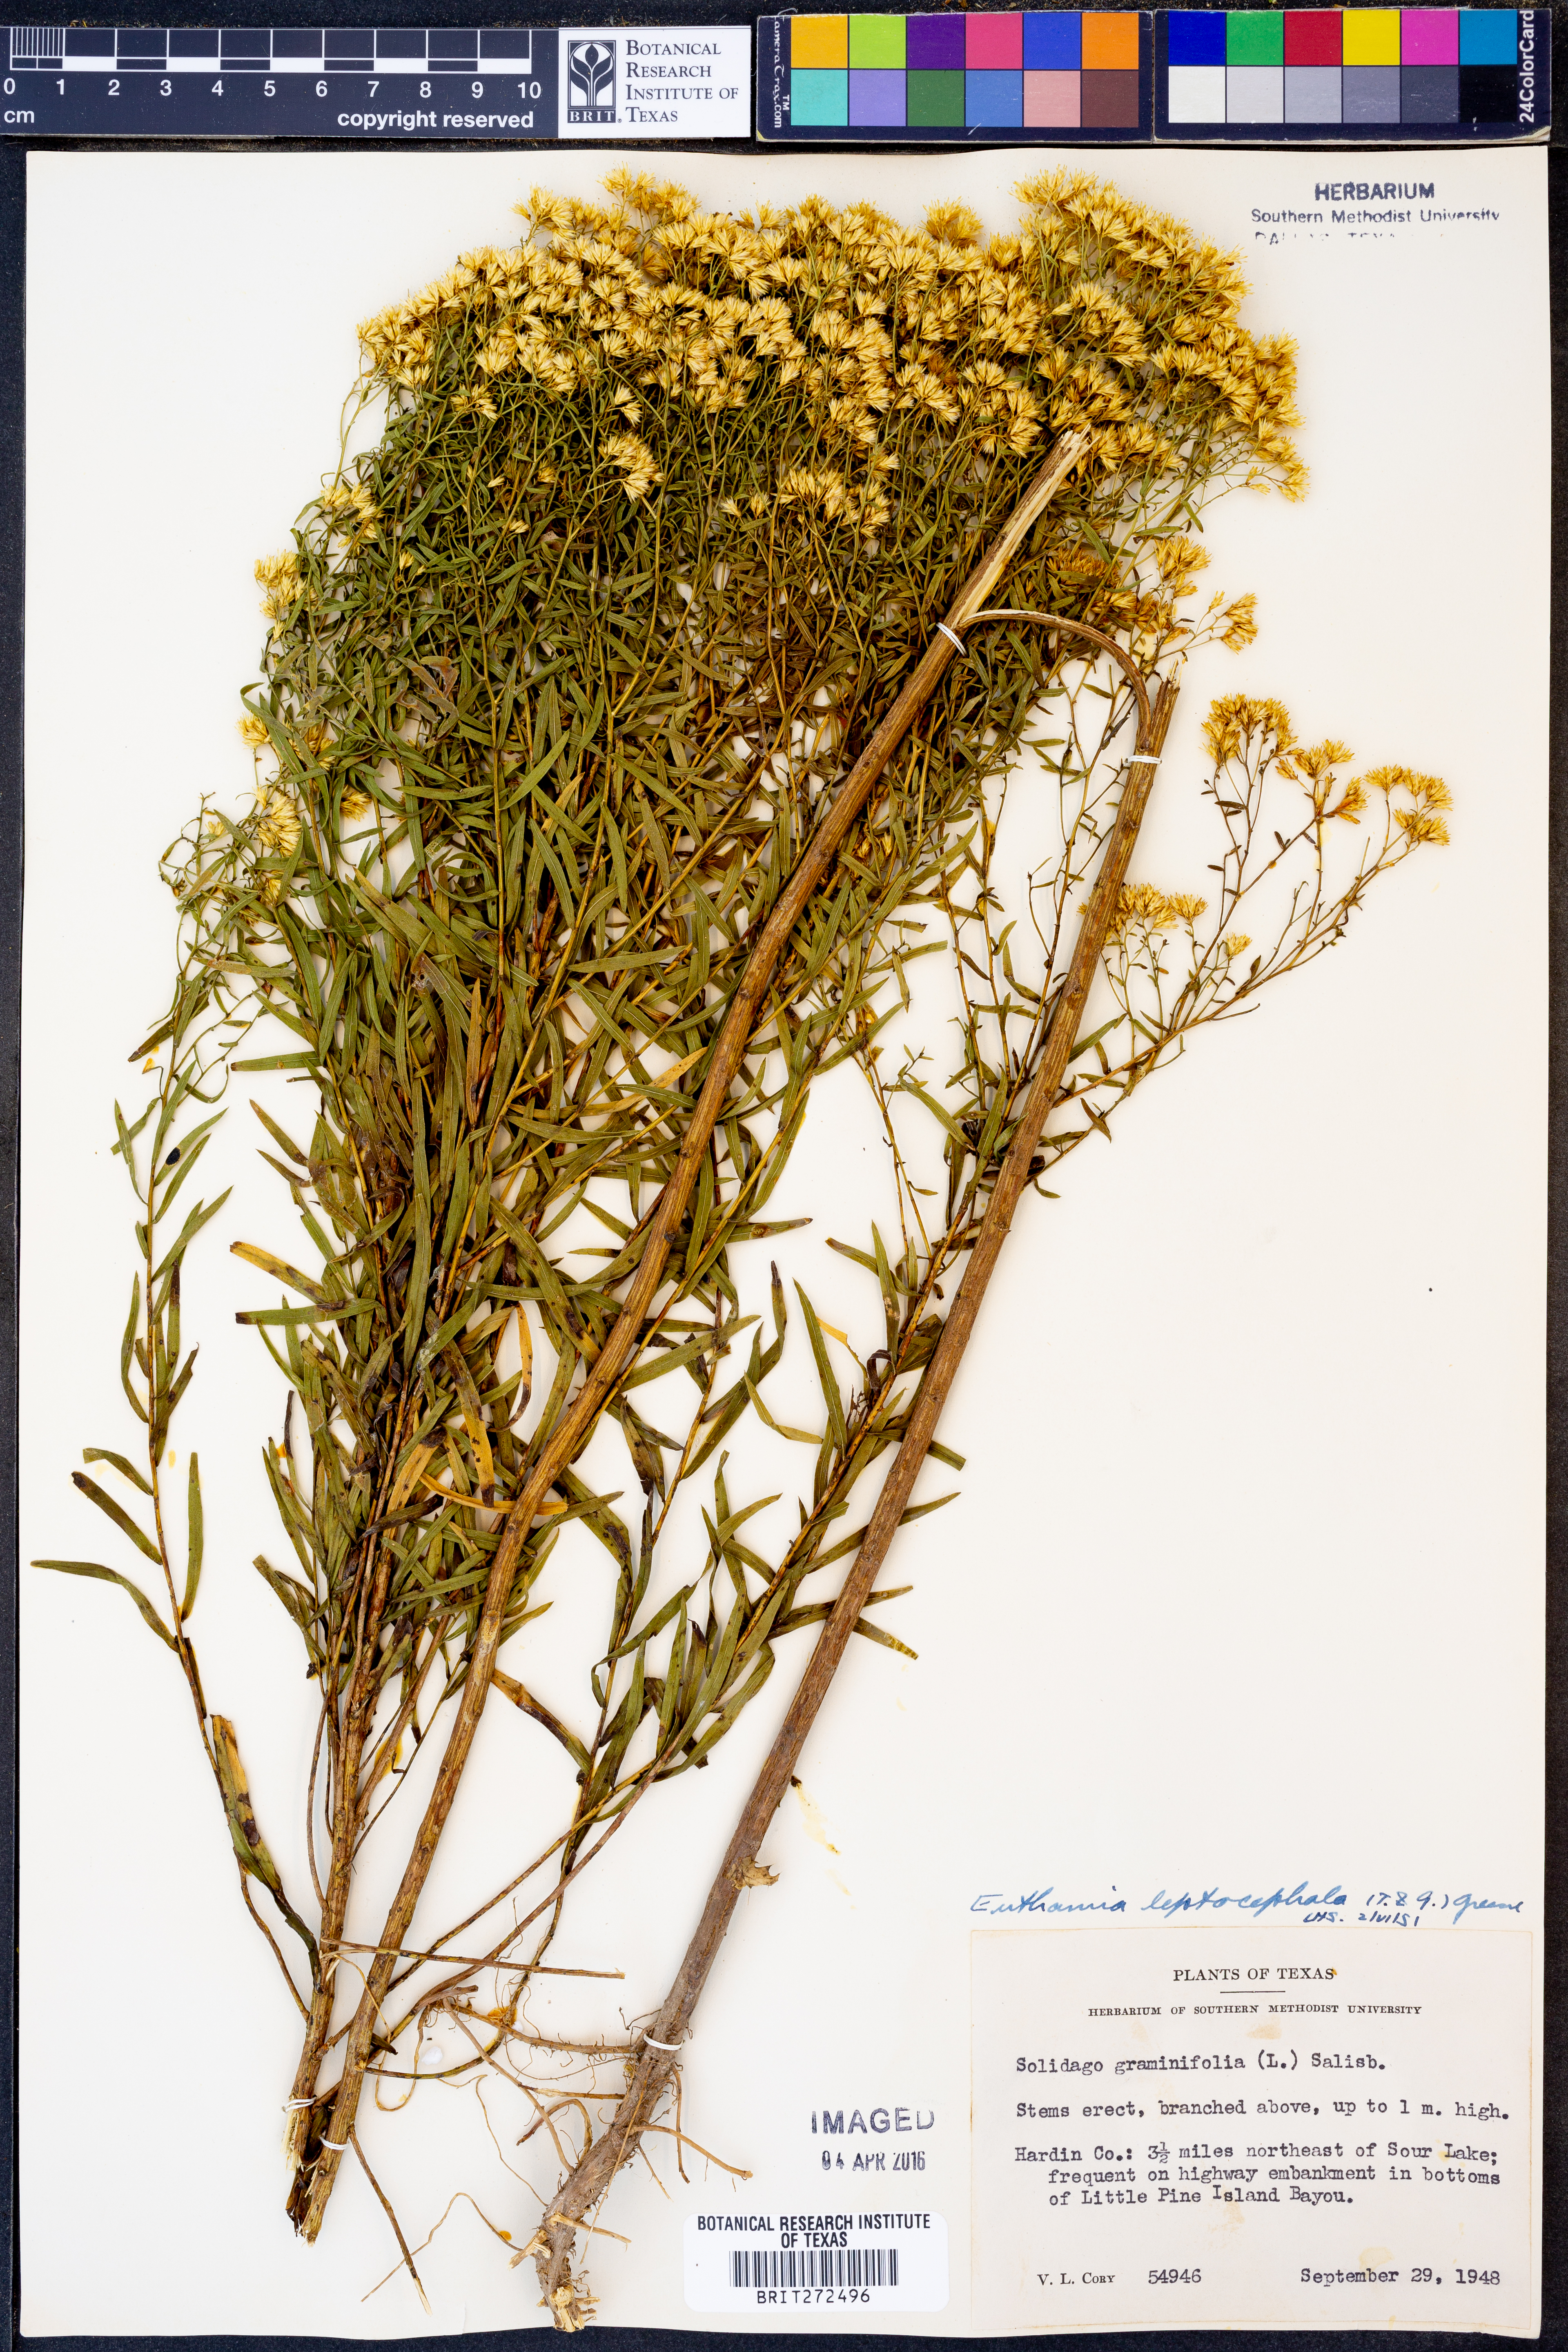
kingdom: Plantae
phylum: Tracheophyta
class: Magnoliopsida
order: Asterales
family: Asteraceae
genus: Euthamia
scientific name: Euthamia leptocephala
